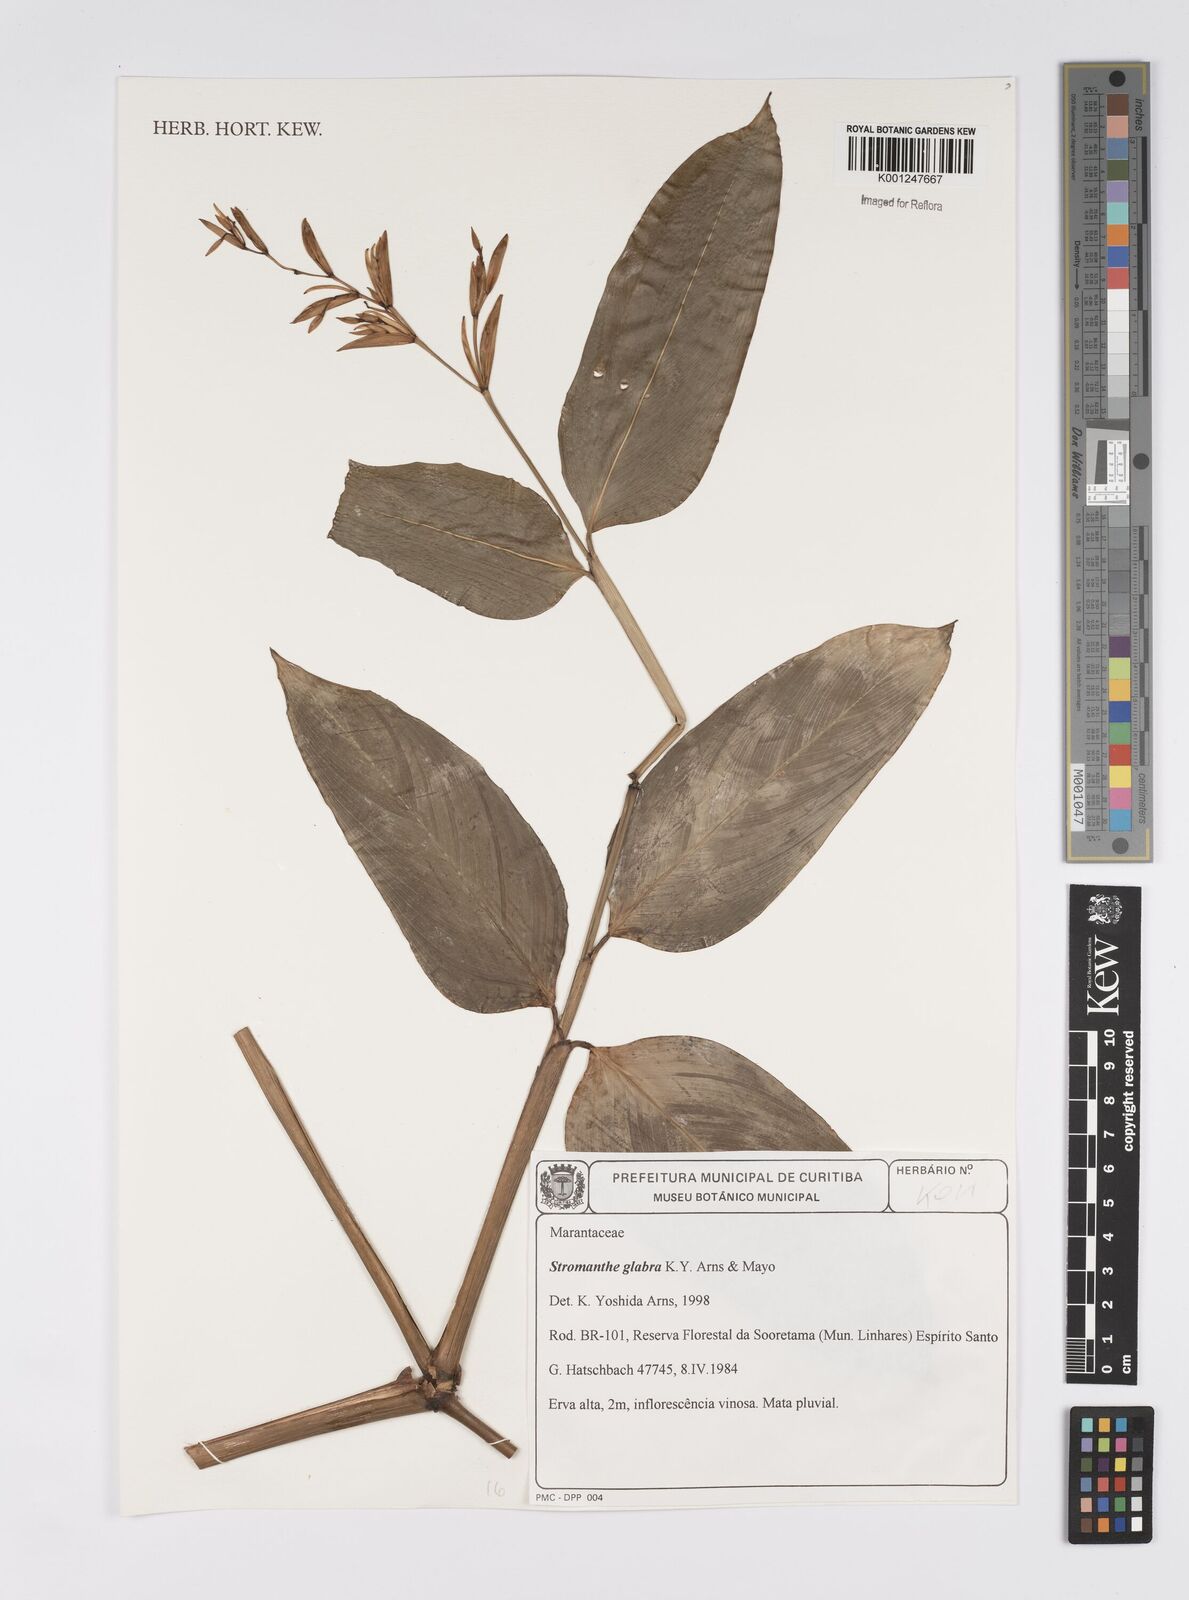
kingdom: Plantae
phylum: Tracheophyta
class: Liliopsida
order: Zingiberales
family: Marantaceae
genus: Stromanthe
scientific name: Stromanthe confusa
